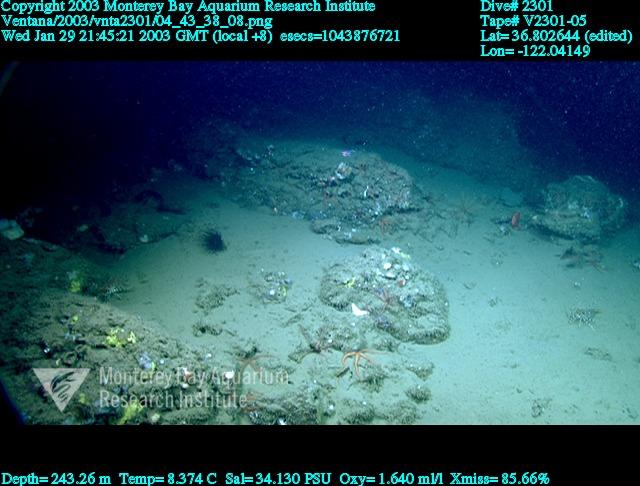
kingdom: Animalia
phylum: Porifera
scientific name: Porifera
